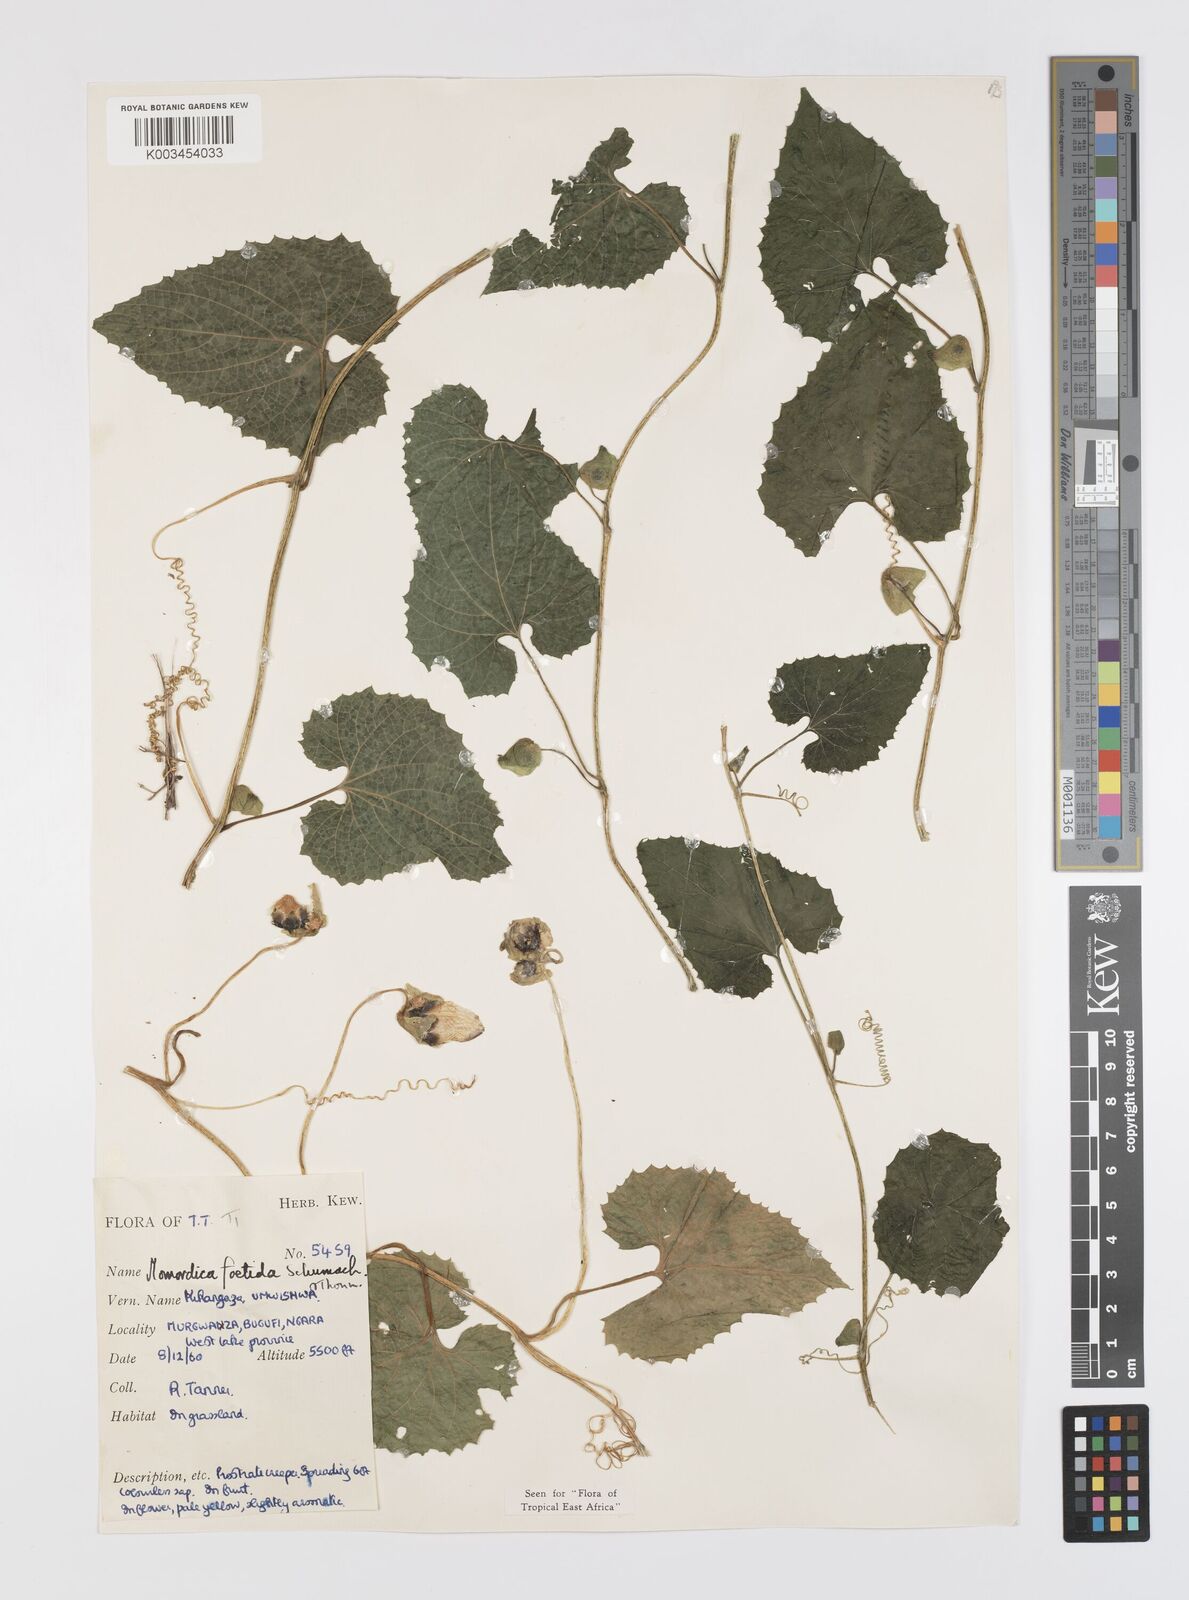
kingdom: Plantae
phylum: Tracheophyta
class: Magnoliopsida
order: Cucurbitales
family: Cucurbitaceae
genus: Momordica
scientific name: Momordica foetida
